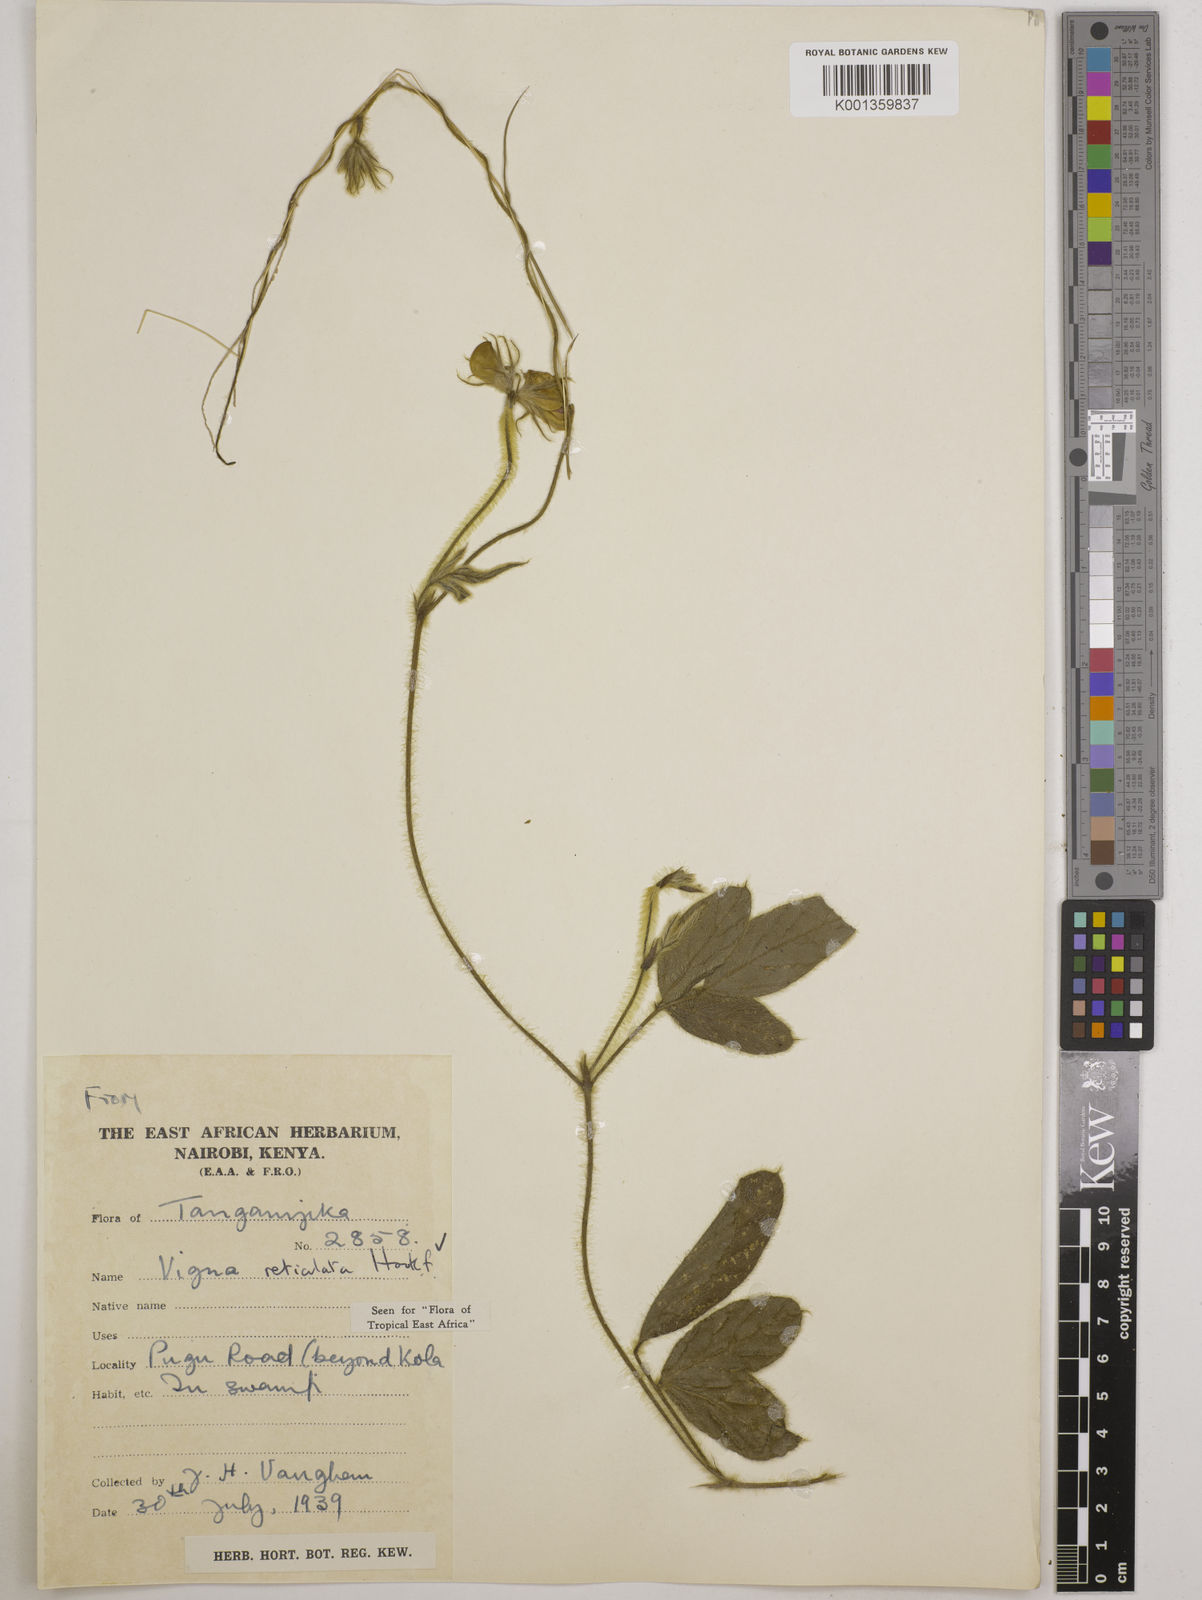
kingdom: Plantae
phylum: Tracheophyta
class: Magnoliopsida
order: Fabales
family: Fabaceae
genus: Vigna
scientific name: Vigna reticulata
